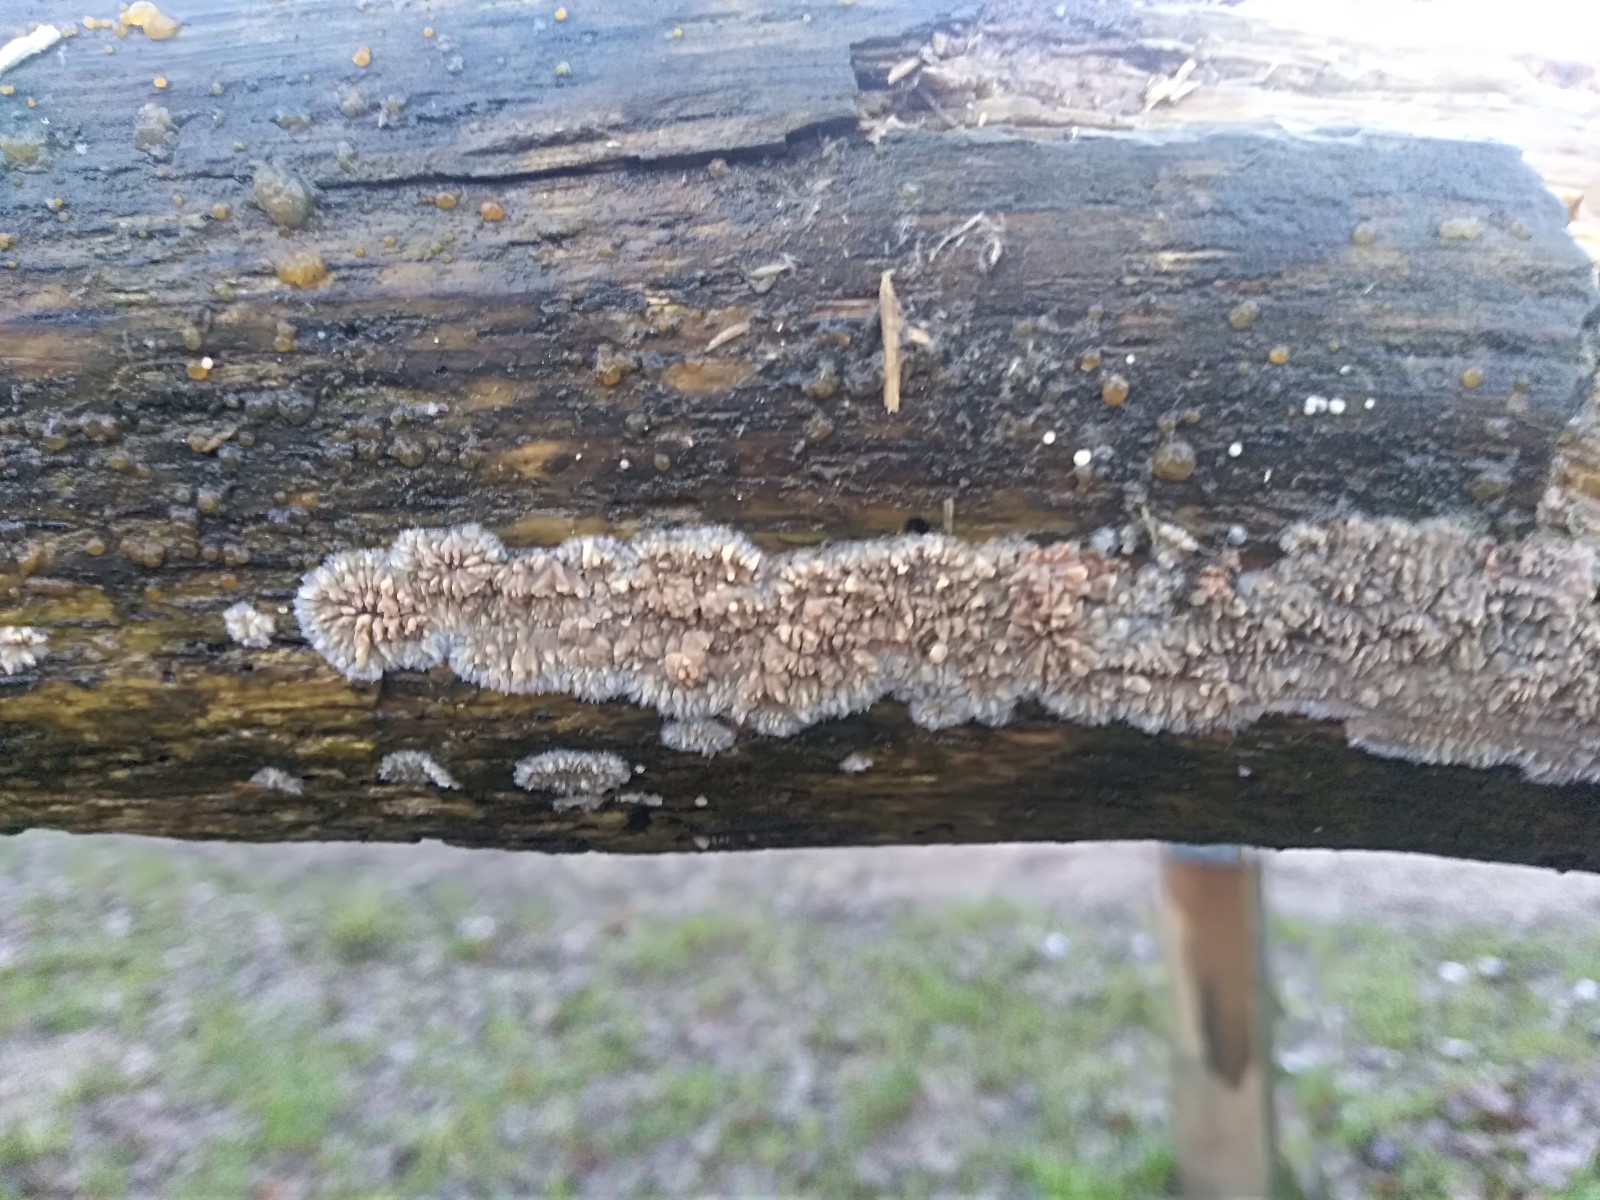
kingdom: Fungi
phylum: Basidiomycota
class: Agaricomycetes
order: Polyporales
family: Meruliaceae
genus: Phlebia
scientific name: Phlebia radiata
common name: stråle-åresvamp
